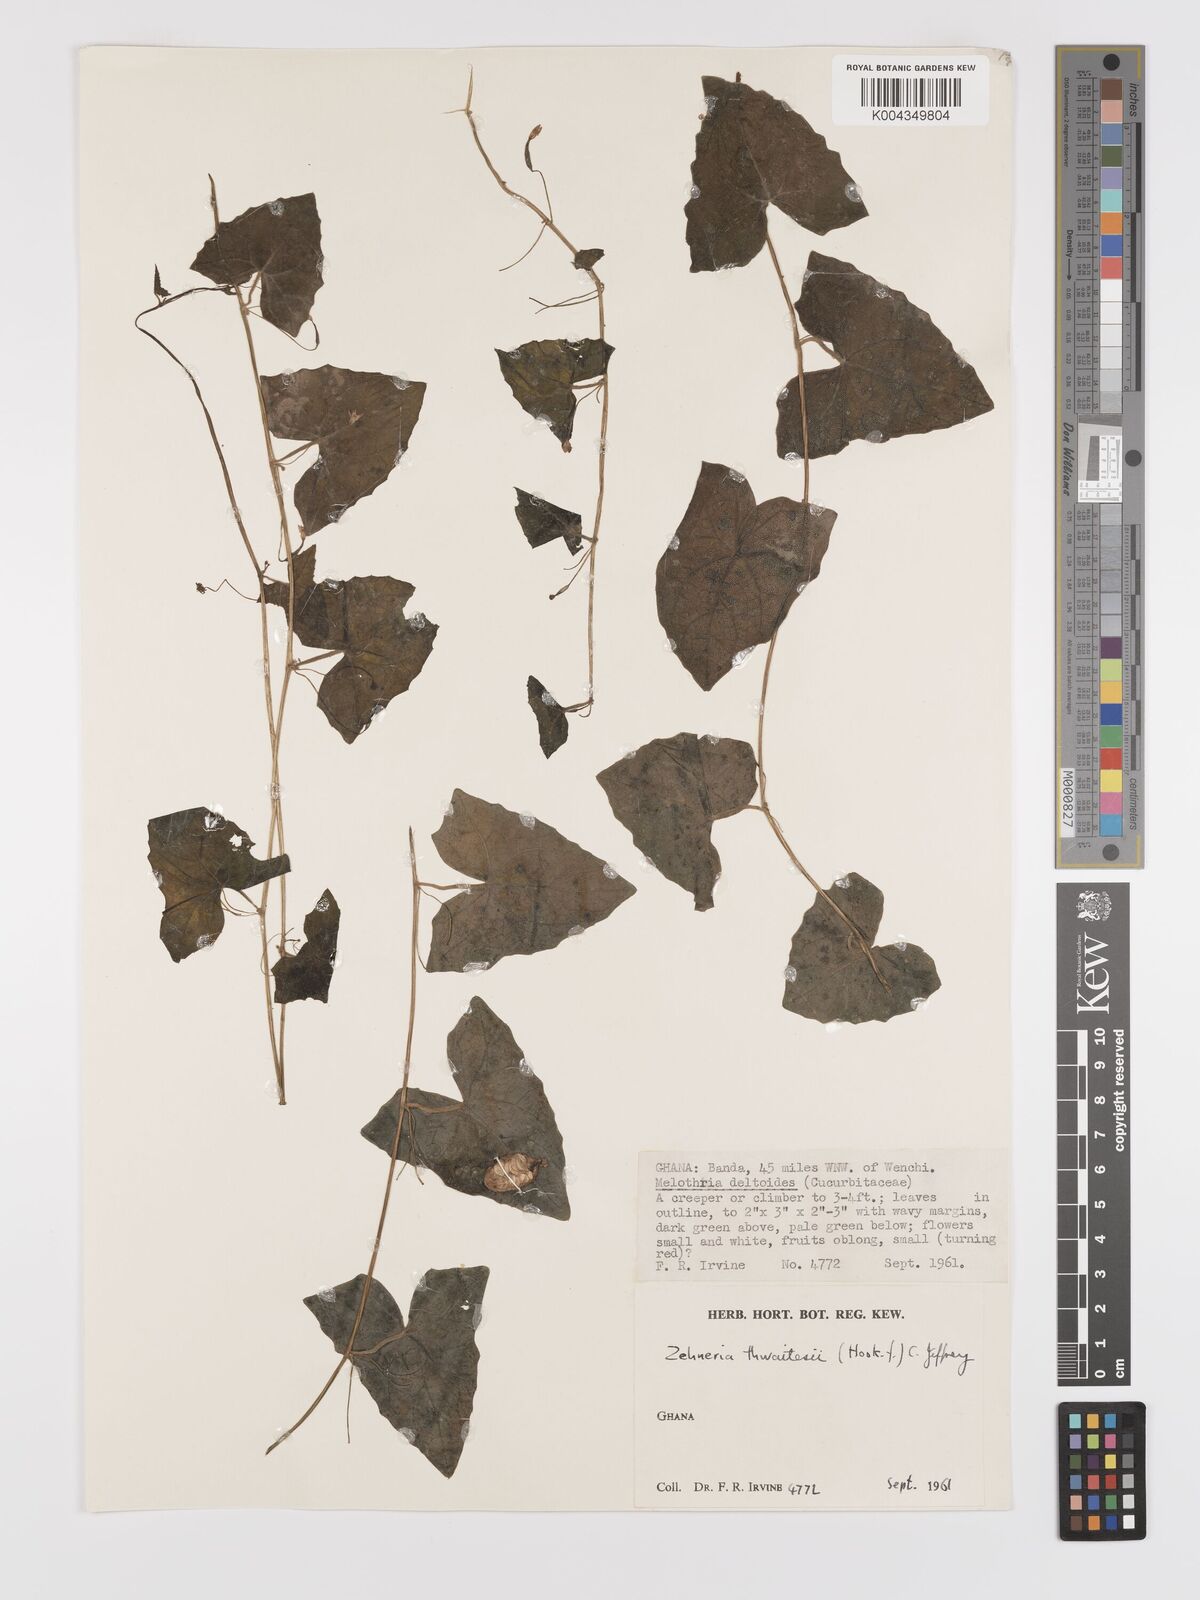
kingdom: Plantae
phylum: Tracheophyta
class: Magnoliopsida
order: Cucurbitales
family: Cucurbitaceae
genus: Zehneria
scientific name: Zehneria hallii
